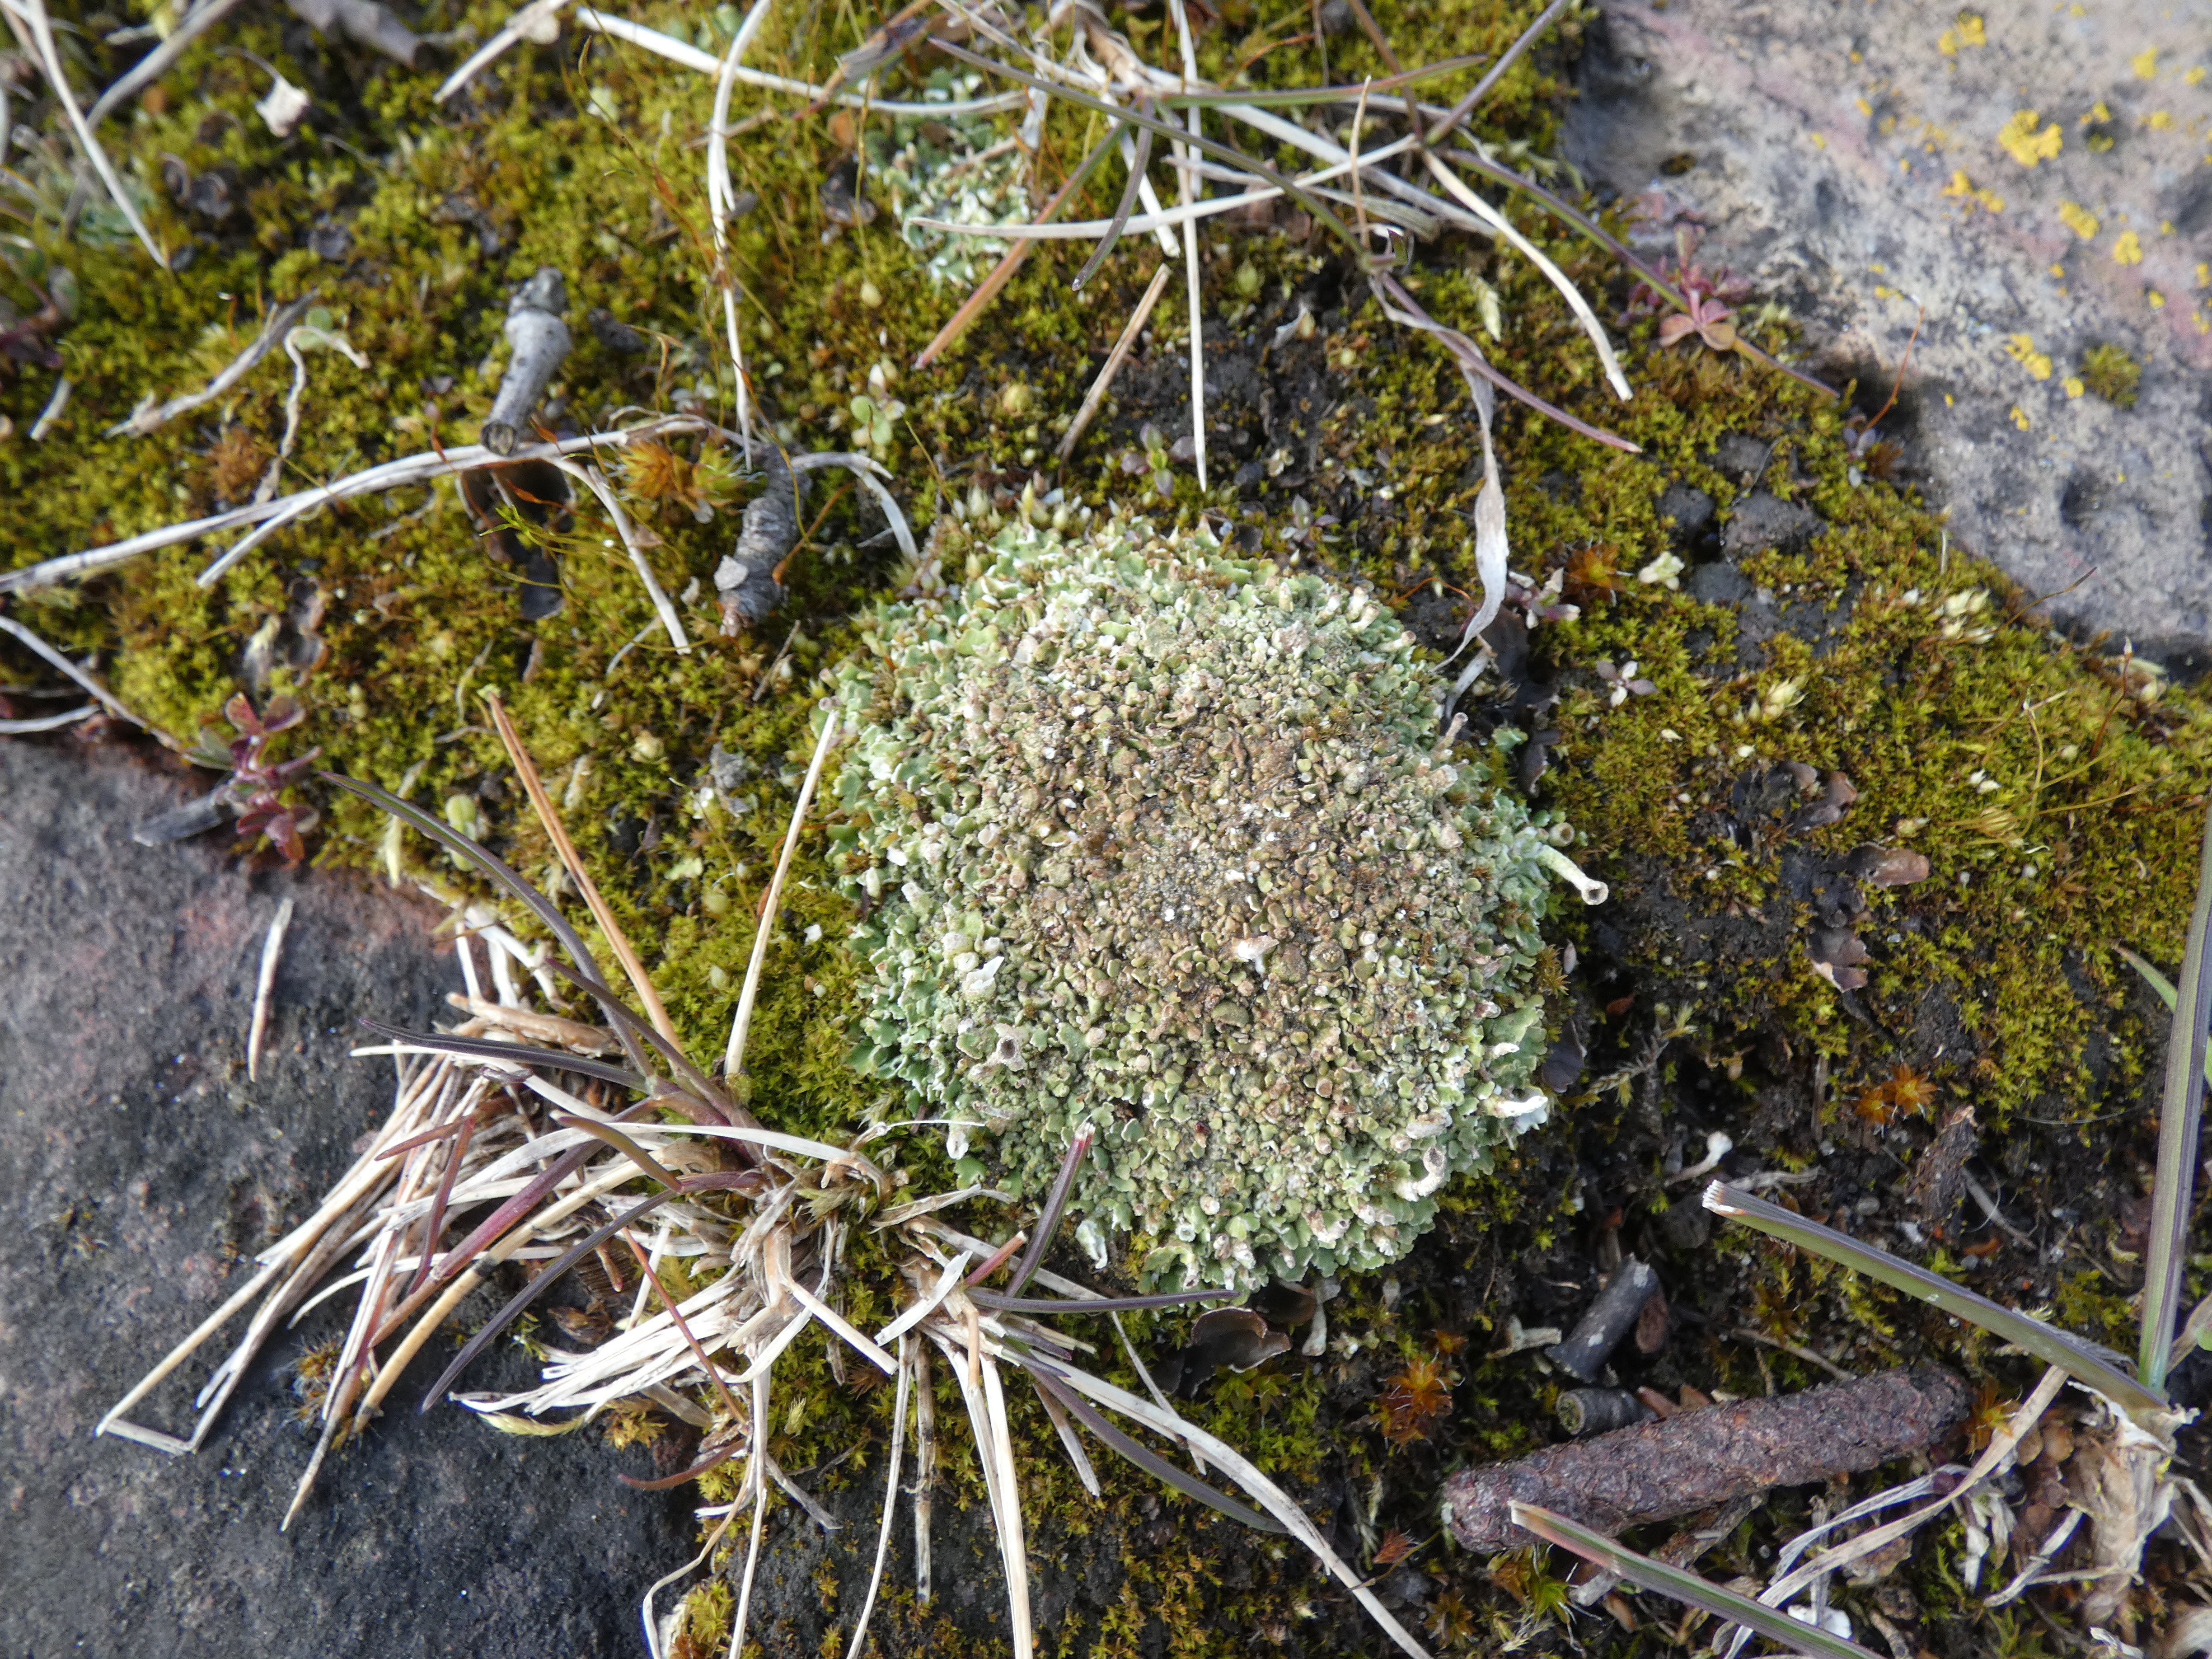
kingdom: Fungi
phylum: Ascomycota
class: Lecanoromycetes
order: Lecanorales
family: Cladoniaceae
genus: Cladonia
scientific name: Cladonia
